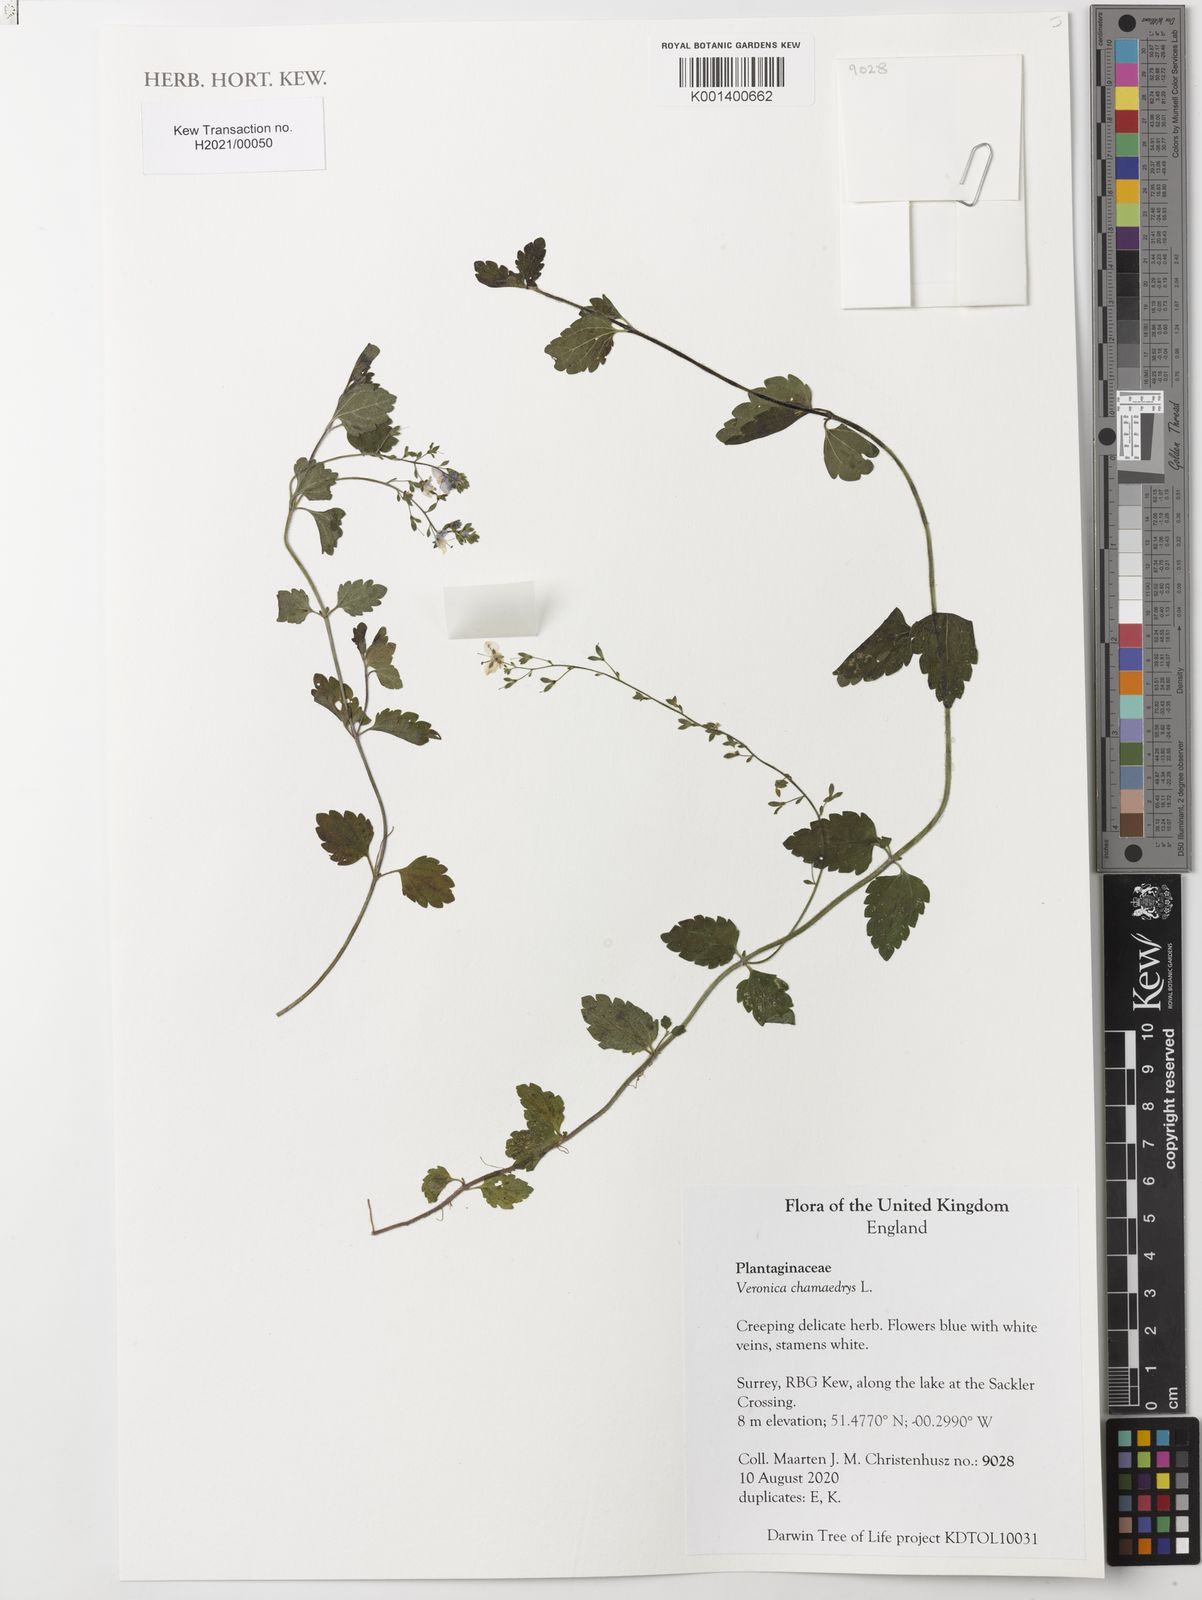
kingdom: Plantae
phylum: Tracheophyta
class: Magnoliopsida
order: Lamiales
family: Plantaginaceae
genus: Veronica
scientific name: Veronica chamaedrys
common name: Germander speedwell
